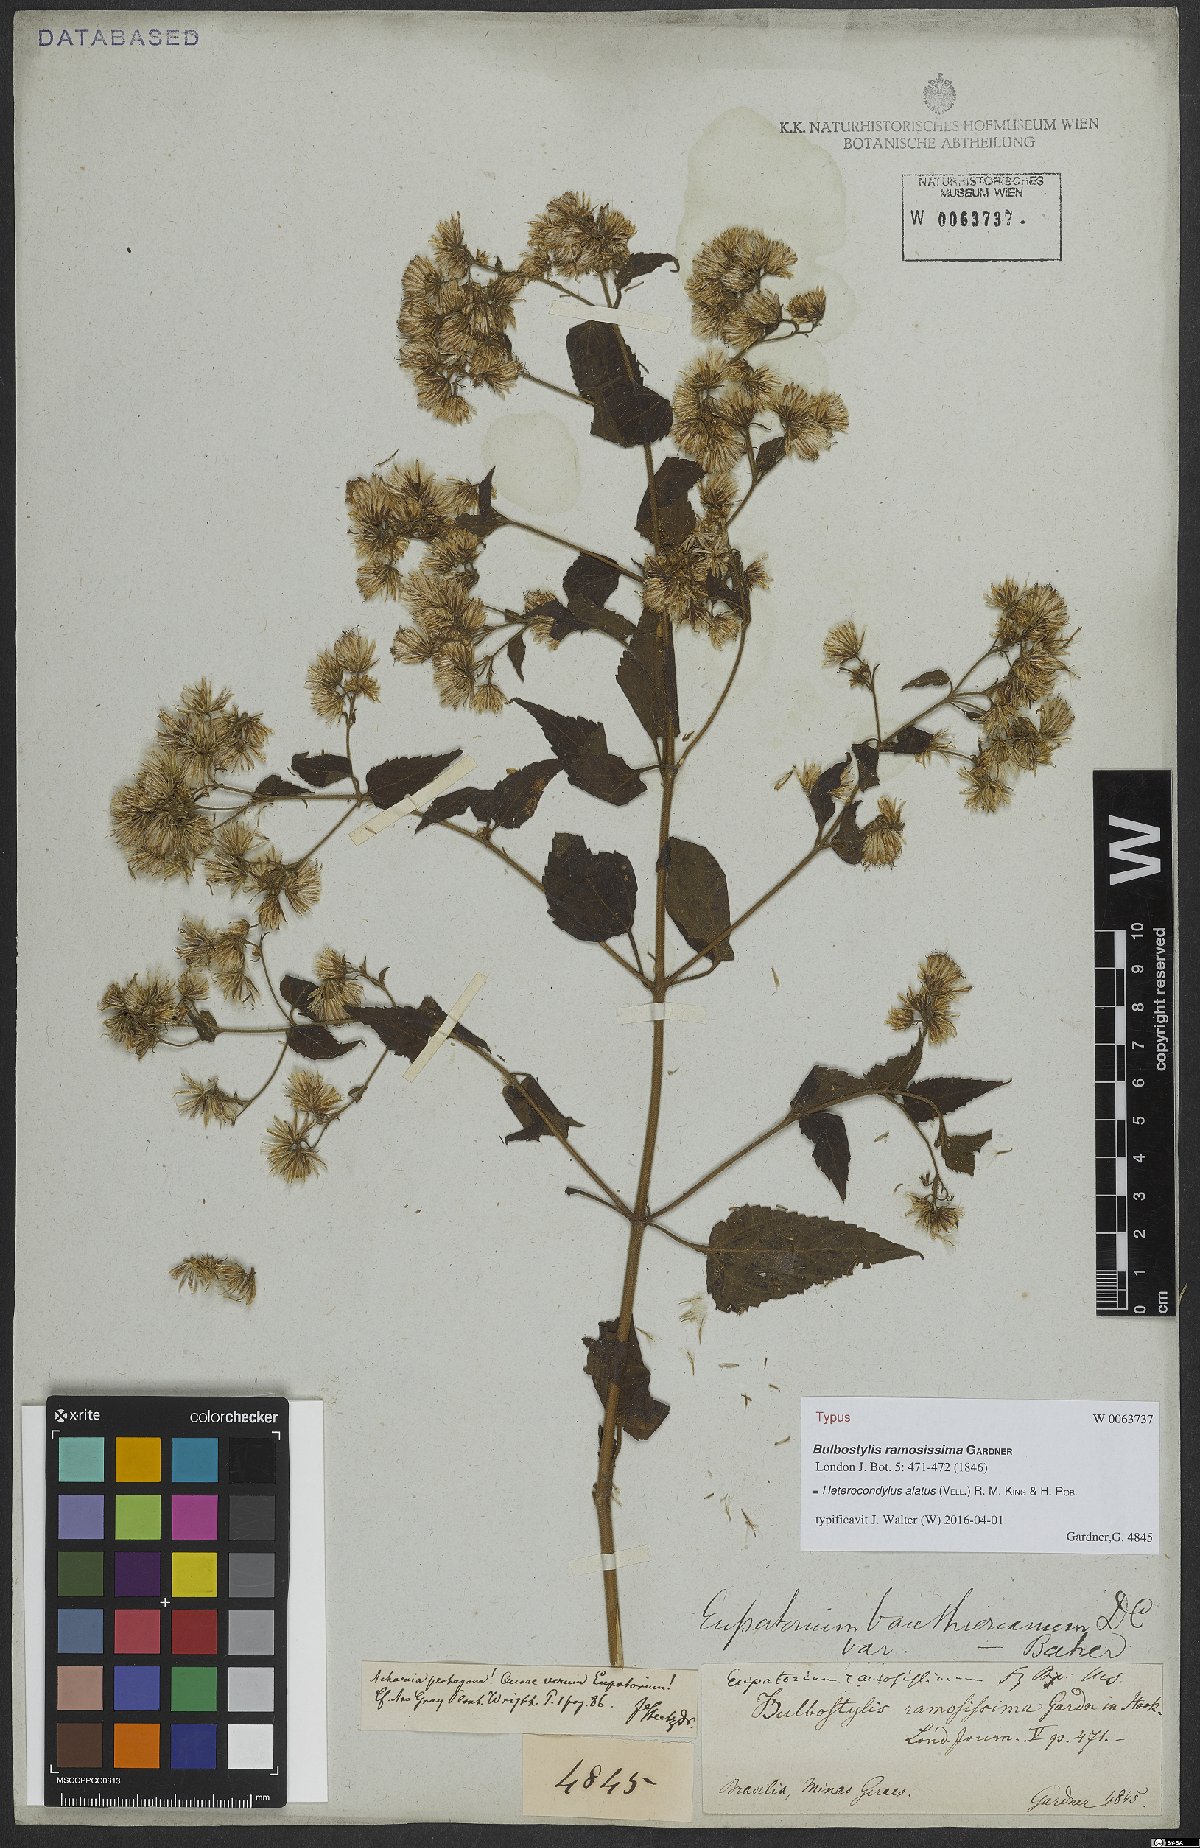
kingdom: Plantae
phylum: Tracheophyta
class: Magnoliopsida
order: Asterales
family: Asteraceae
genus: Heterocondylus
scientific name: Heterocondylus alatus
